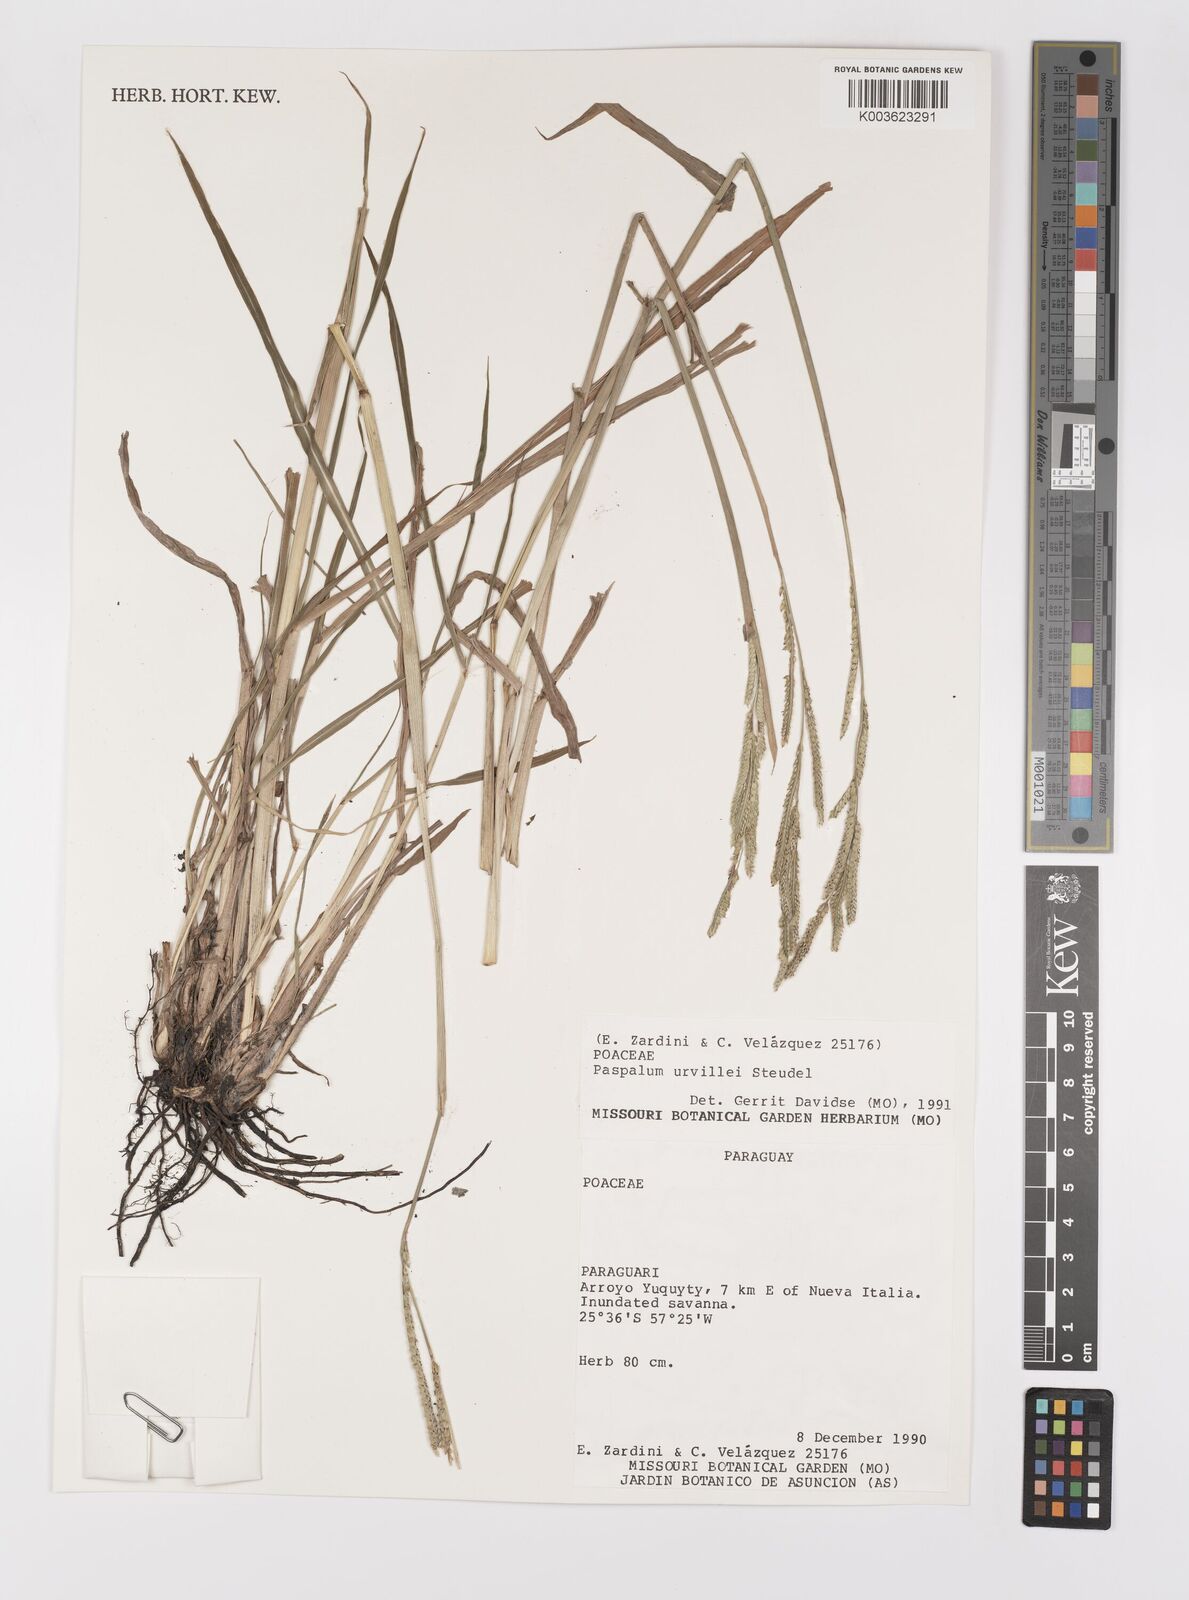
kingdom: Plantae
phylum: Tracheophyta
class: Liliopsida
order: Poales
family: Poaceae
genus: Paspalum
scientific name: Paspalum urvillei
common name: Vasey's grass
